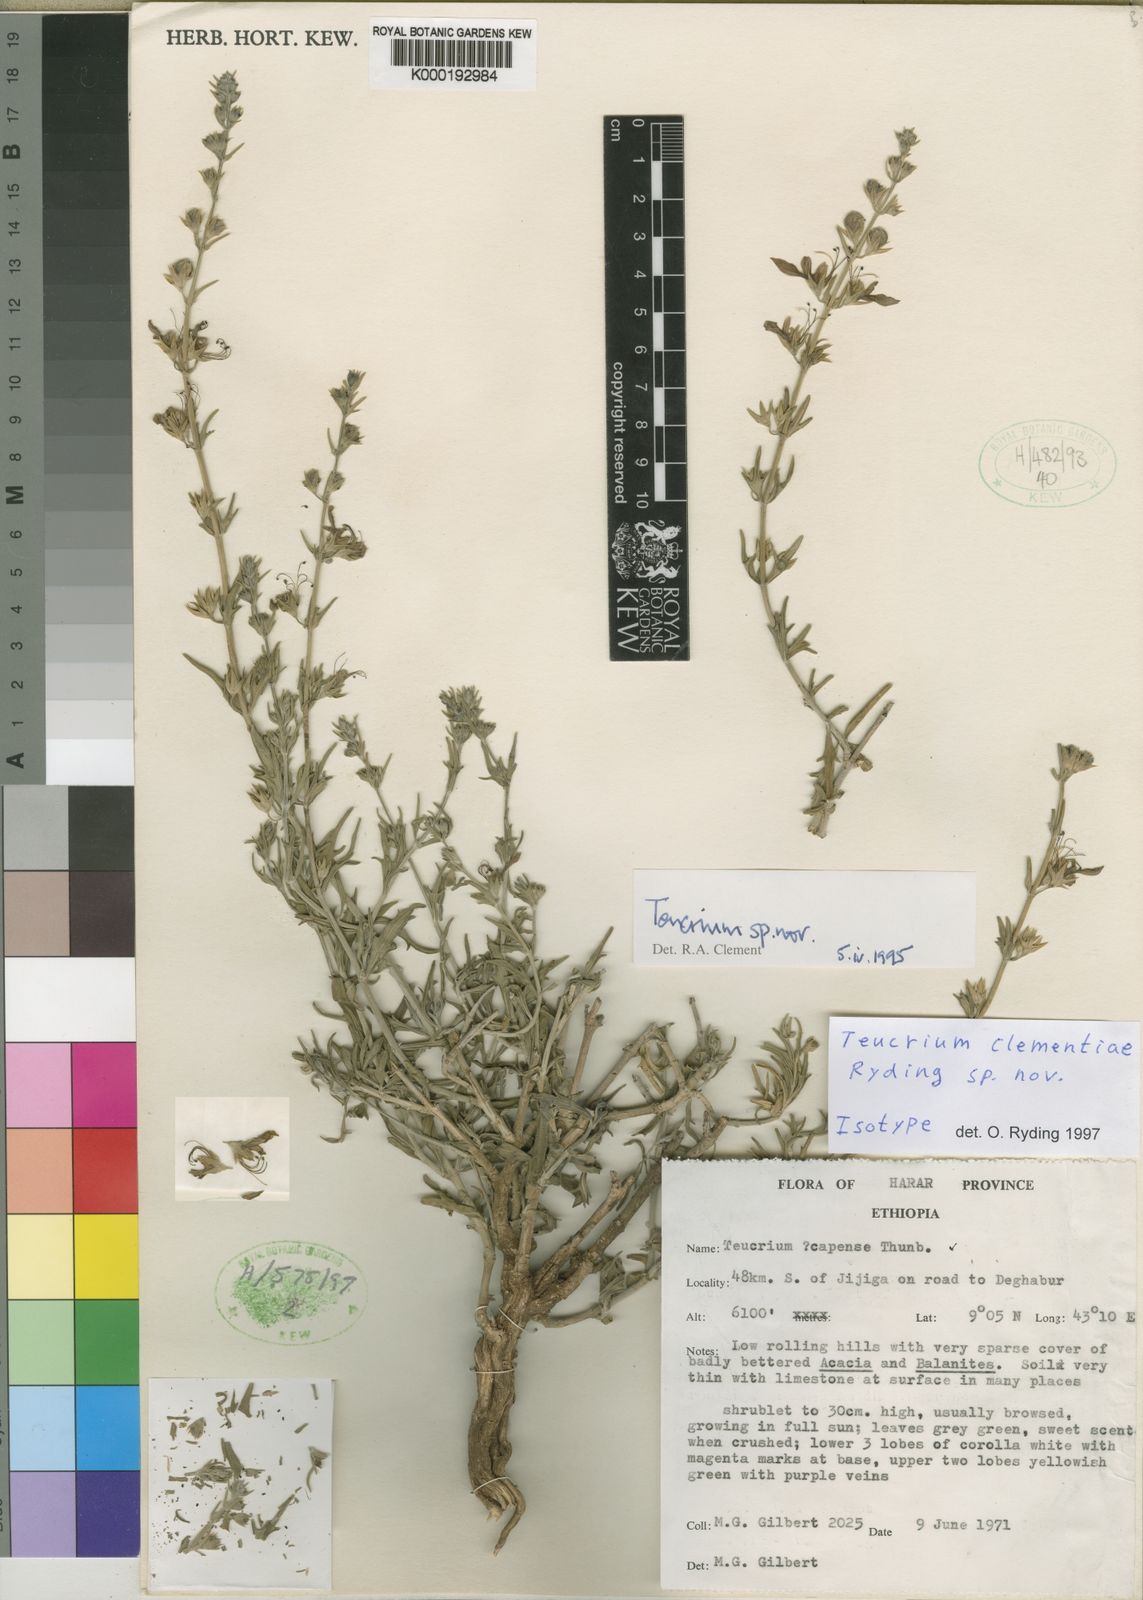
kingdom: Plantae
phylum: Tracheophyta
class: Magnoliopsida
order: Lamiales
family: Lamiaceae
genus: Teucrium
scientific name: Teucrium clementiae
